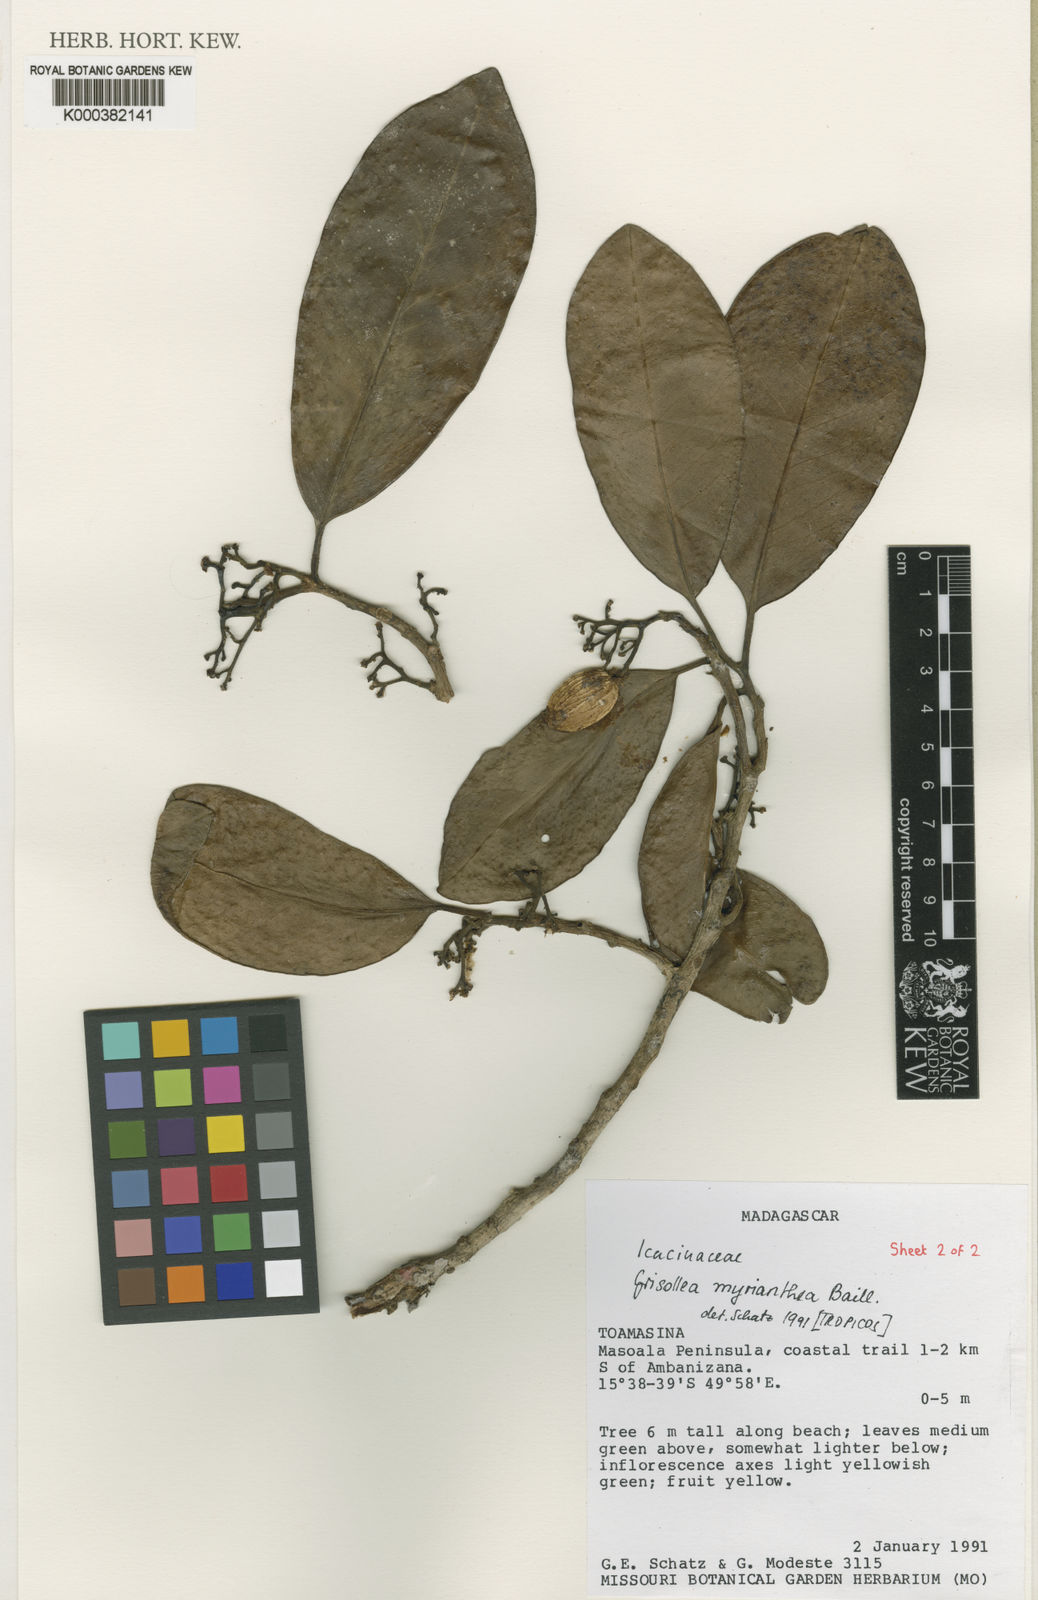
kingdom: Plantae
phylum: Tracheophyta
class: Magnoliopsida
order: Cardiopteridales
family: Stemonuraceae
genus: Grisollea
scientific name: Grisollea myriantha
